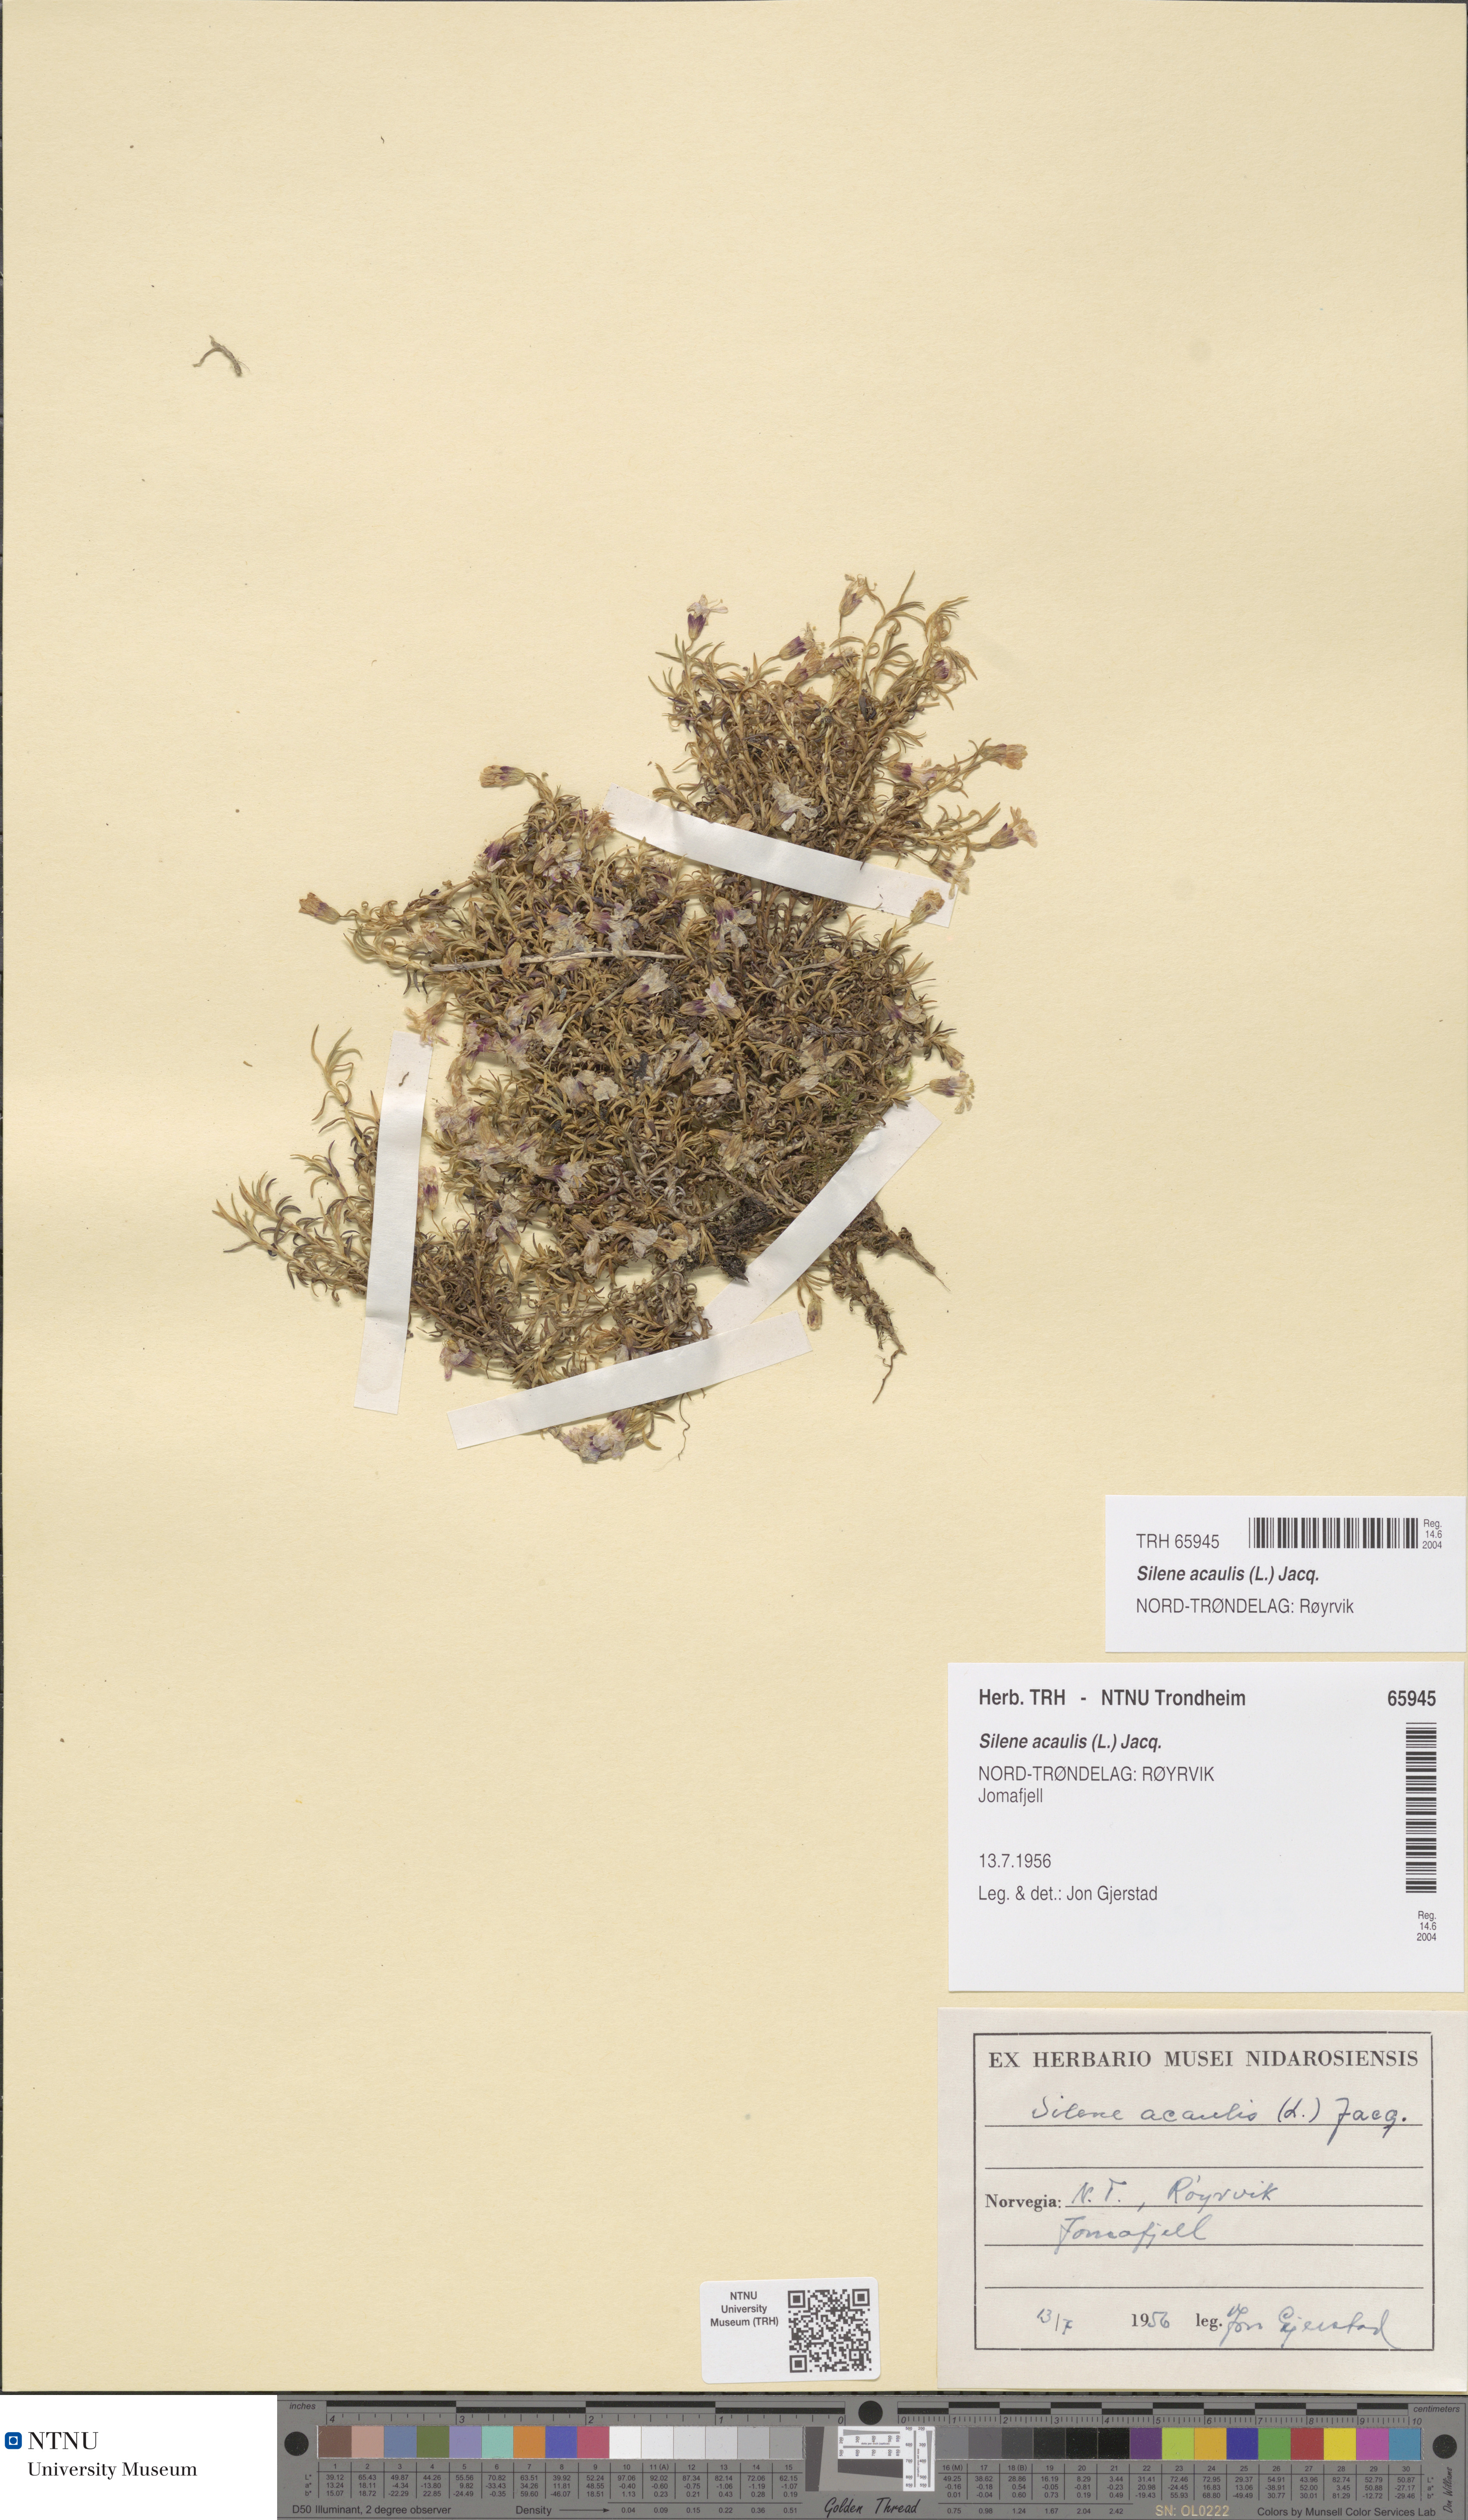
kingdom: Plantae
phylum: Tracheophyta
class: Magnoliopsida
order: Caryophyllales
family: Caryophyllaceae
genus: Silene
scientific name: Silene acaulis
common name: Moss campion
